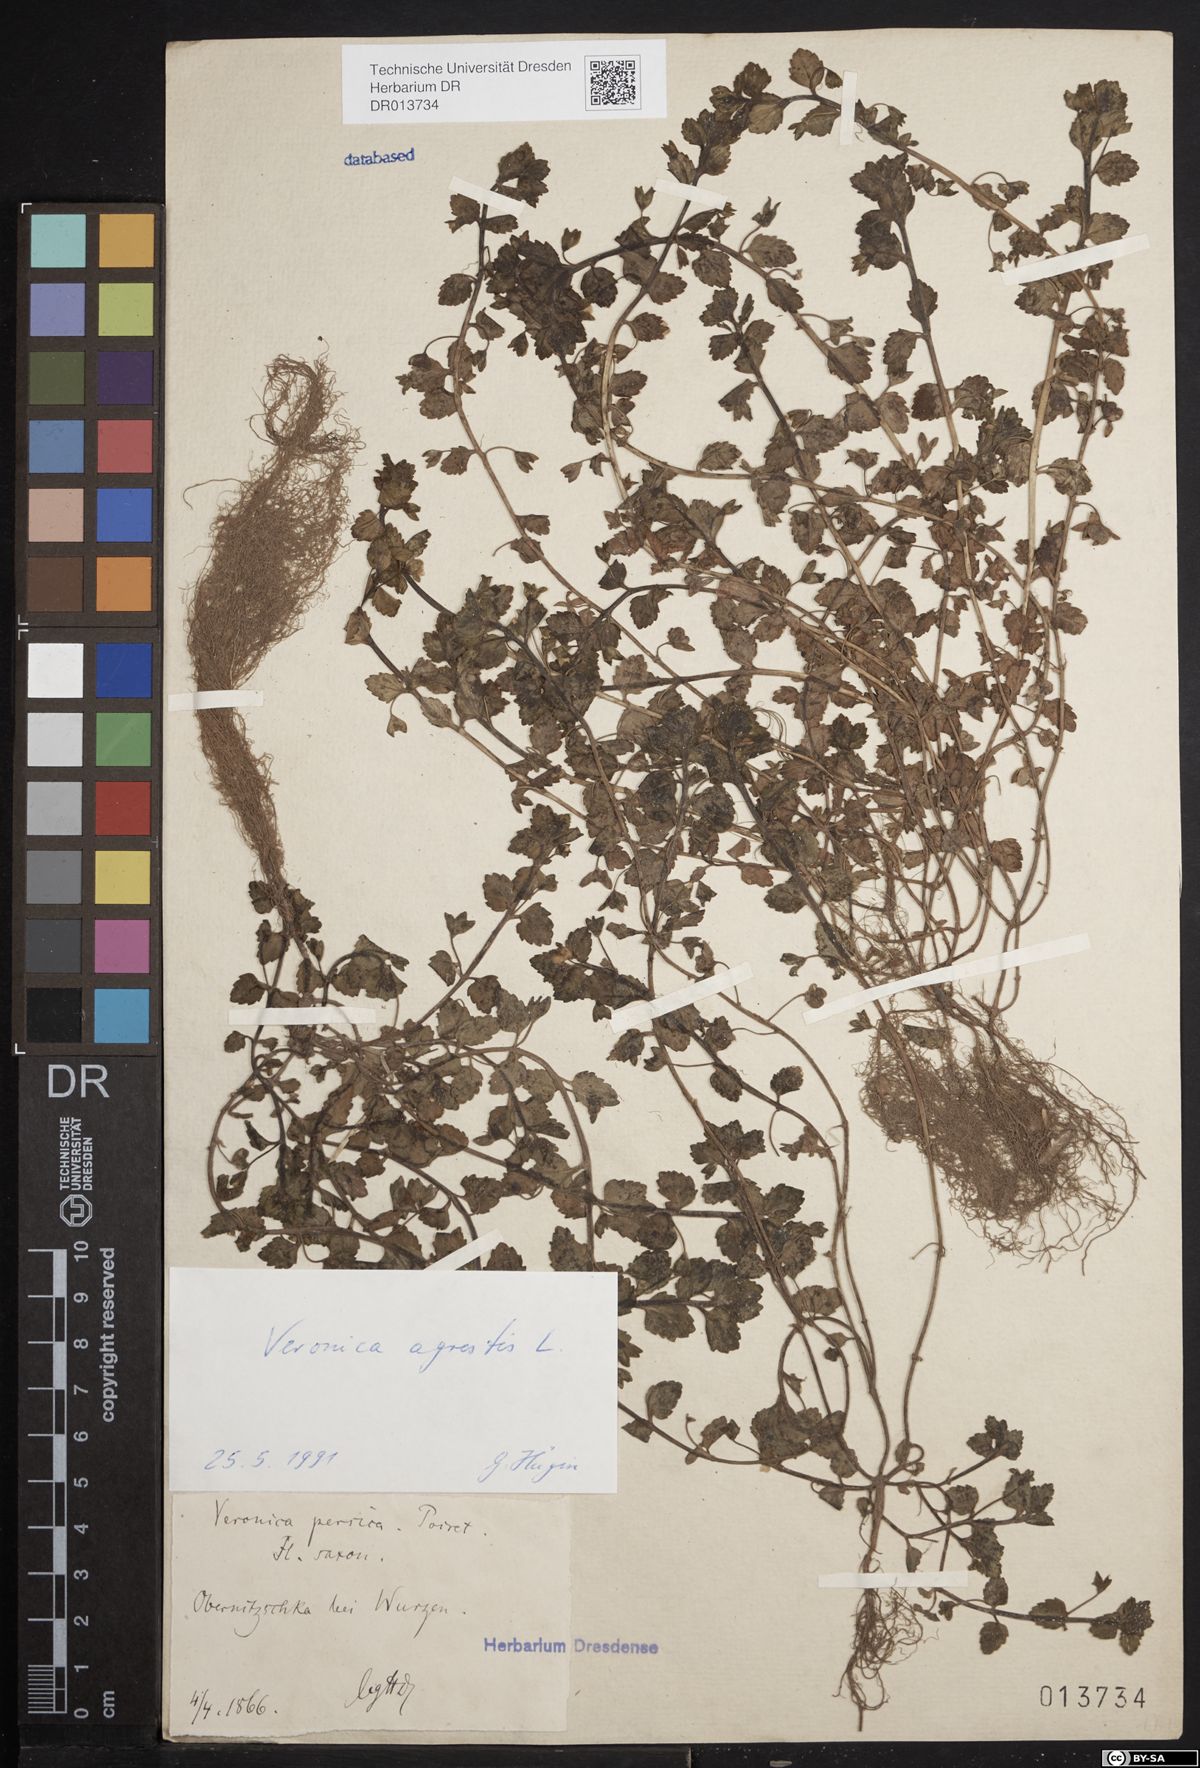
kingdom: Plantae
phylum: Tracheophyta
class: Magnoliopsida
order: Lamiales
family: Plantaginaceae
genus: Veronica
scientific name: Veronica agrestis
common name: Green field-speedwell
